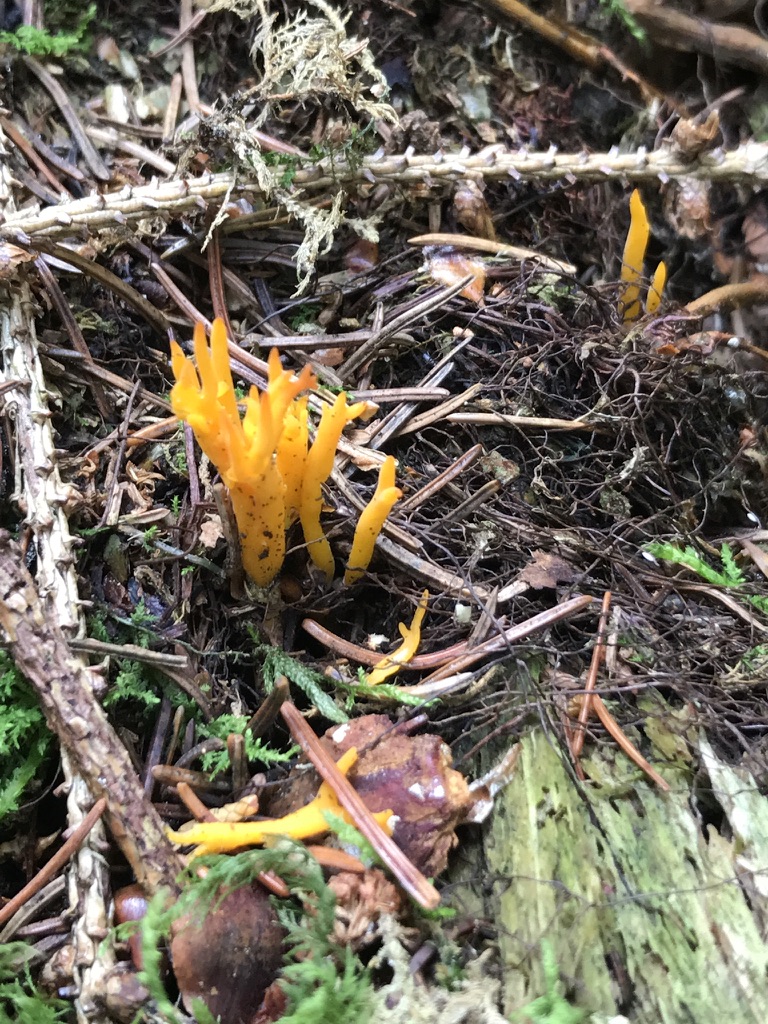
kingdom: Fungi
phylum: Basidiomycota
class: Dacrymycetes
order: Dacrymycetales
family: Dacrymycetaceae
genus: Calocera
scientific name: Calocera viscosa
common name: almindelig guldgaffel
